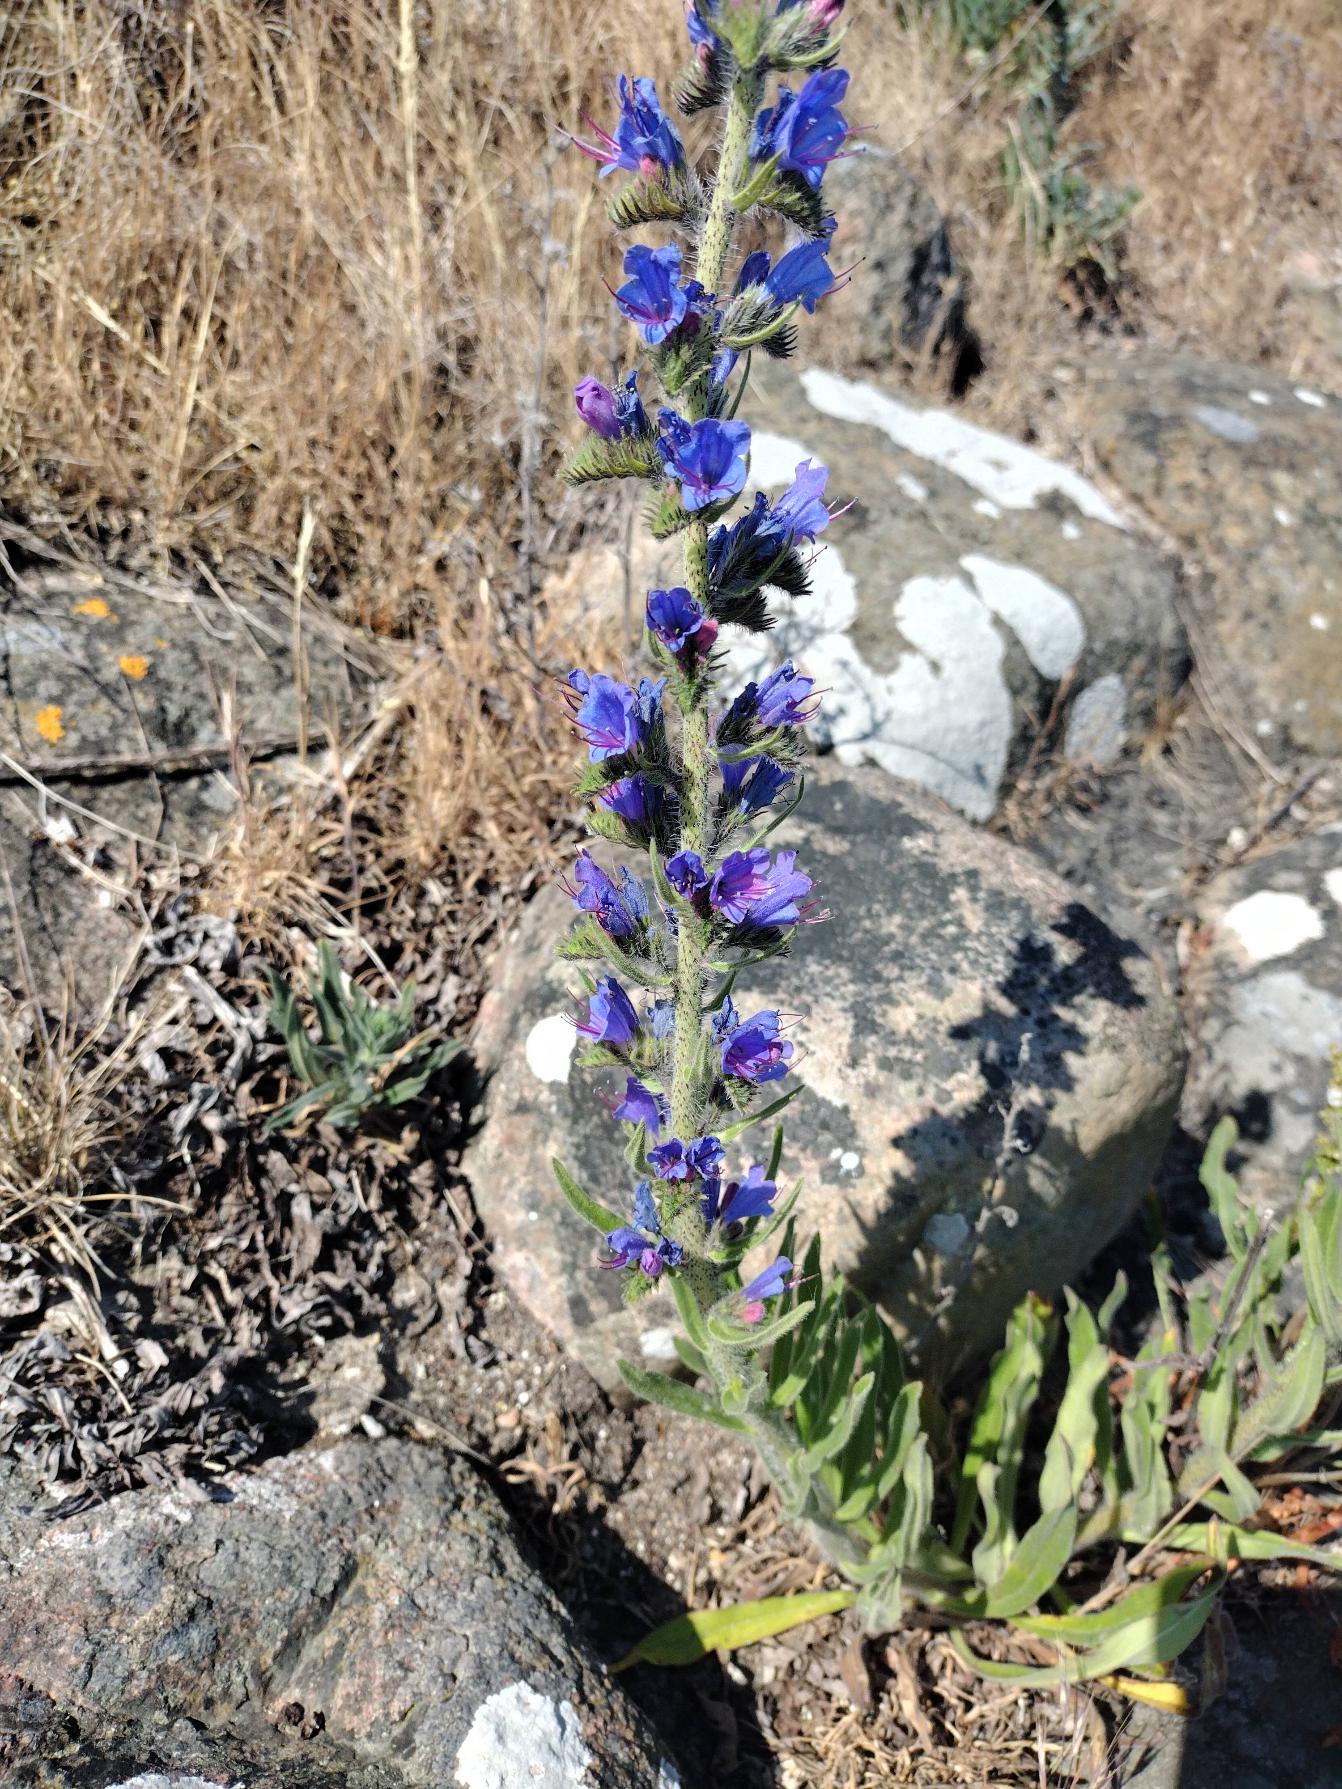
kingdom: Plantae
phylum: Tracheophyta
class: Magnoliopsida
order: Boraginales
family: Boraginaceae
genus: Echium
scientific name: Echium vulgare
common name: Slangehoved
